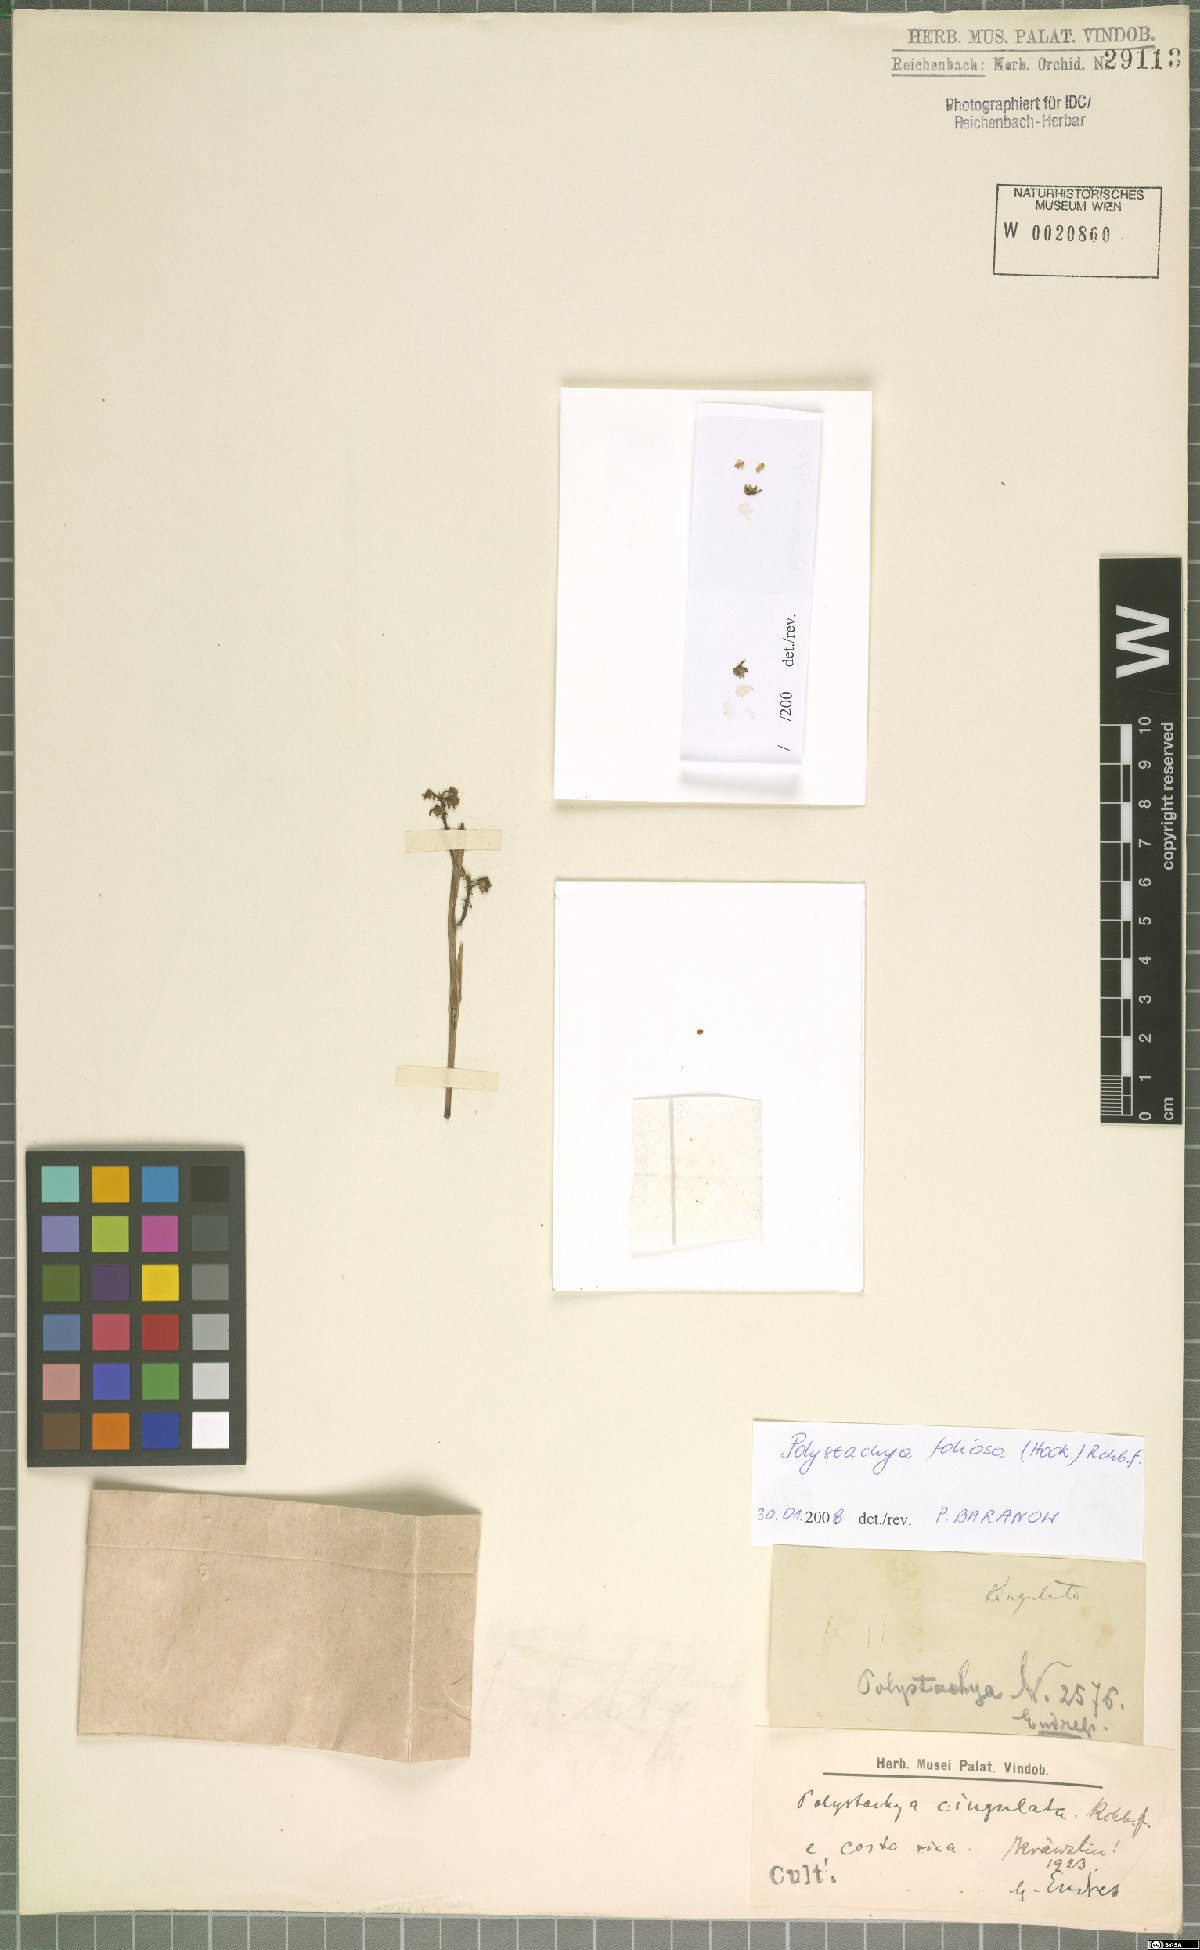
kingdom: Plantae
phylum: Tracheophyta
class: Liliopsida
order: Asparagales
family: Orchidaceae
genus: Polystachya
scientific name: Polystachya foliosa
